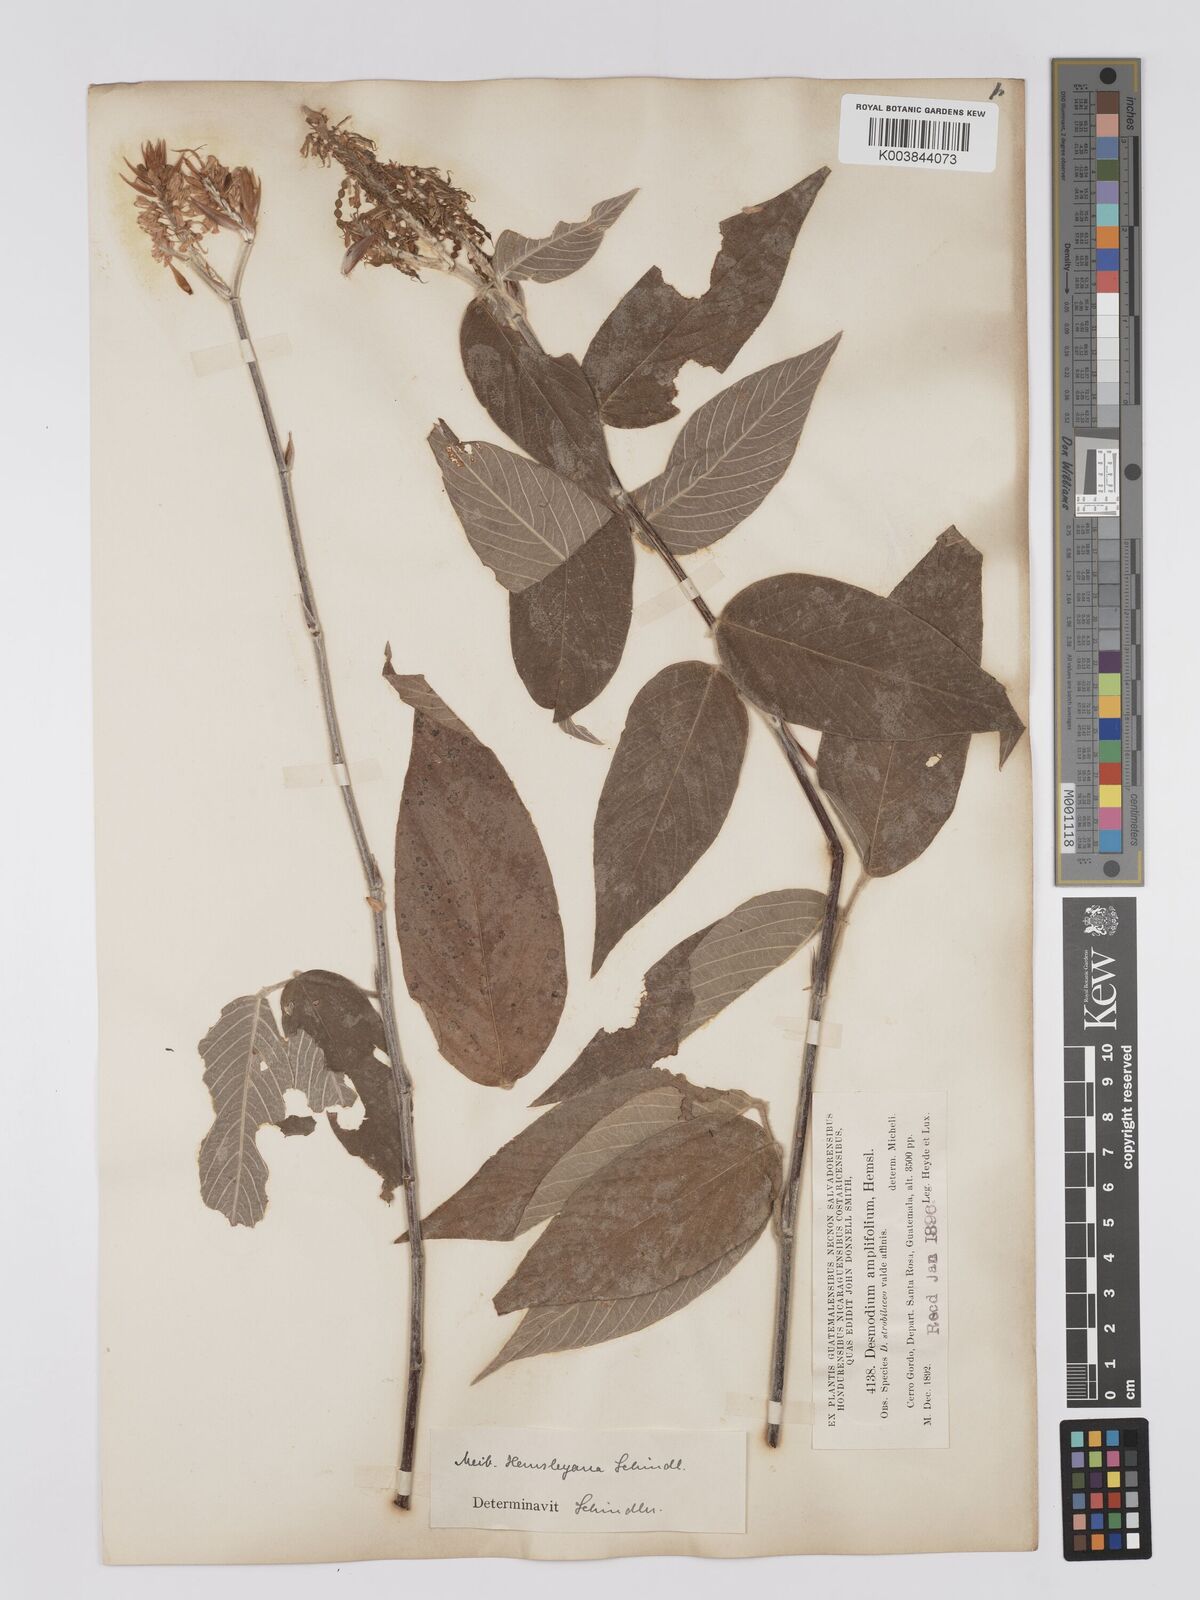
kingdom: Plantae
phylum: Tracheophyta
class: Magnoliopsida
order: Fabales
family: Fabaceae
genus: Desmodium
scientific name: Desmodium
